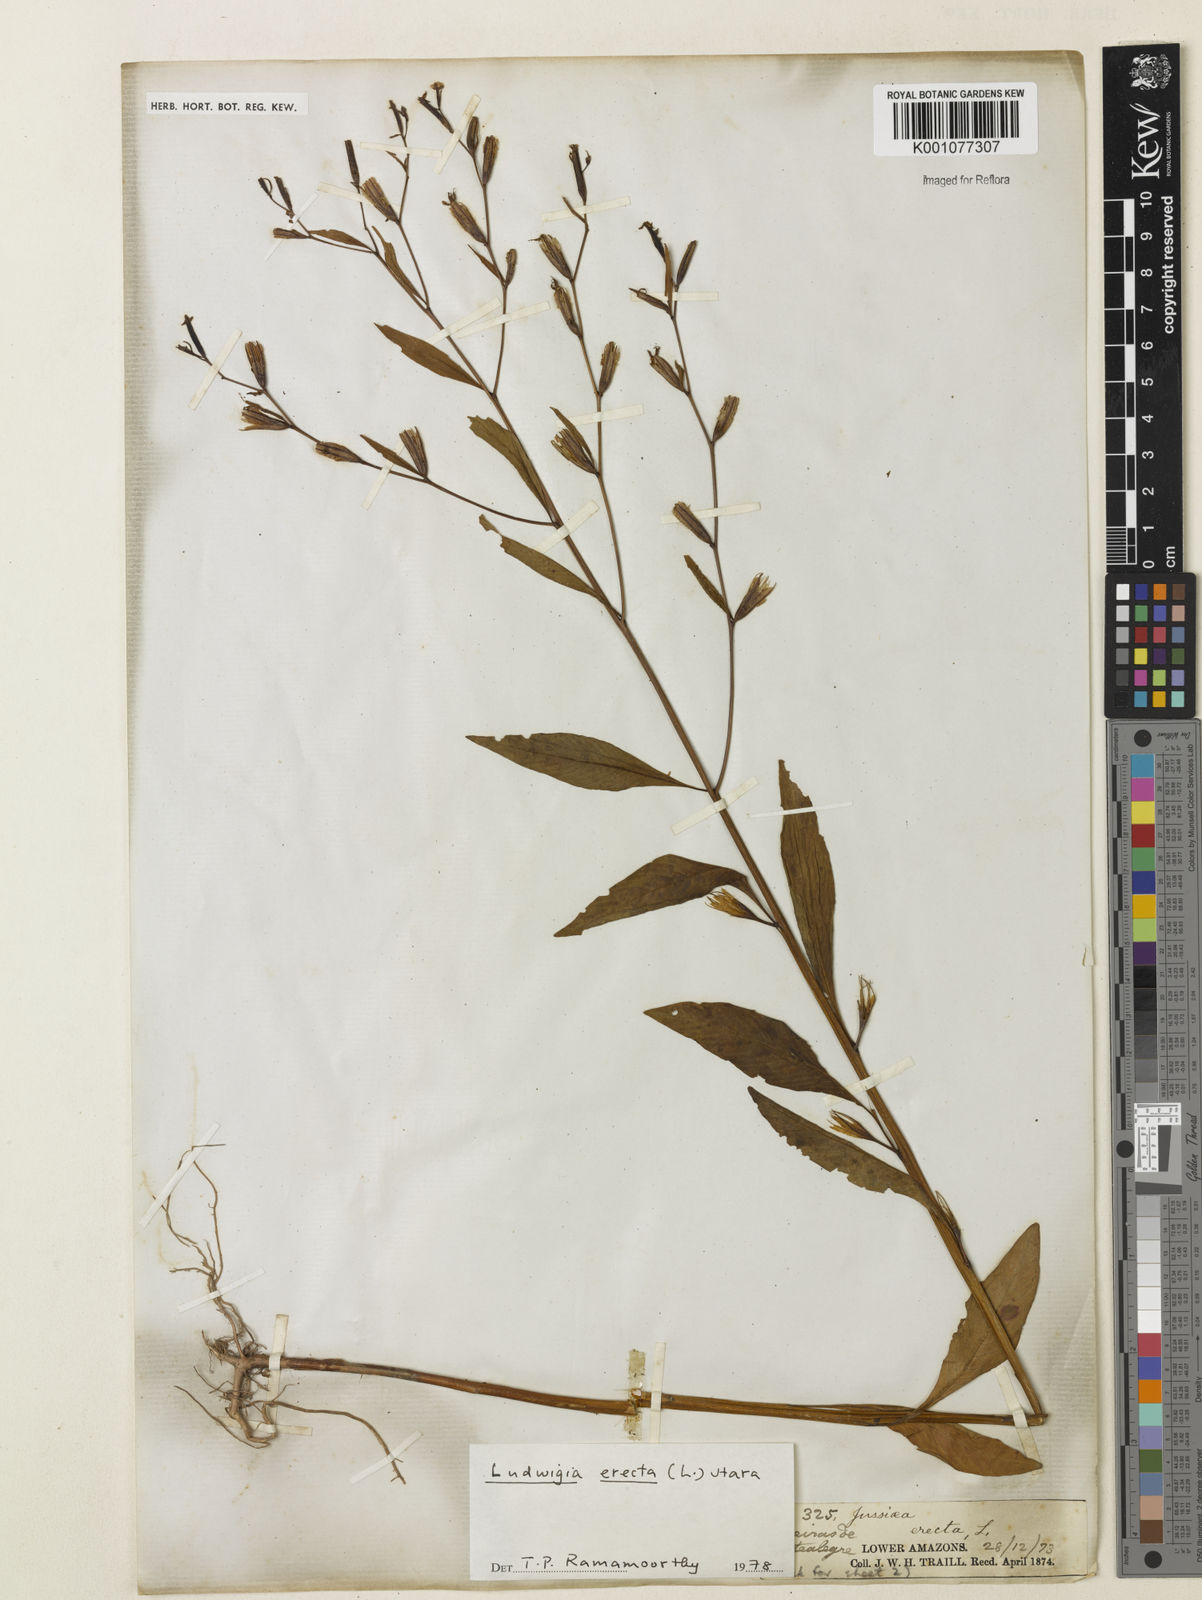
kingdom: Plantae
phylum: Tracheophyta
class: Magnoliopsida
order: Myrtales
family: Onagraceae
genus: Ludwigia
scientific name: Ludwigia erecta
